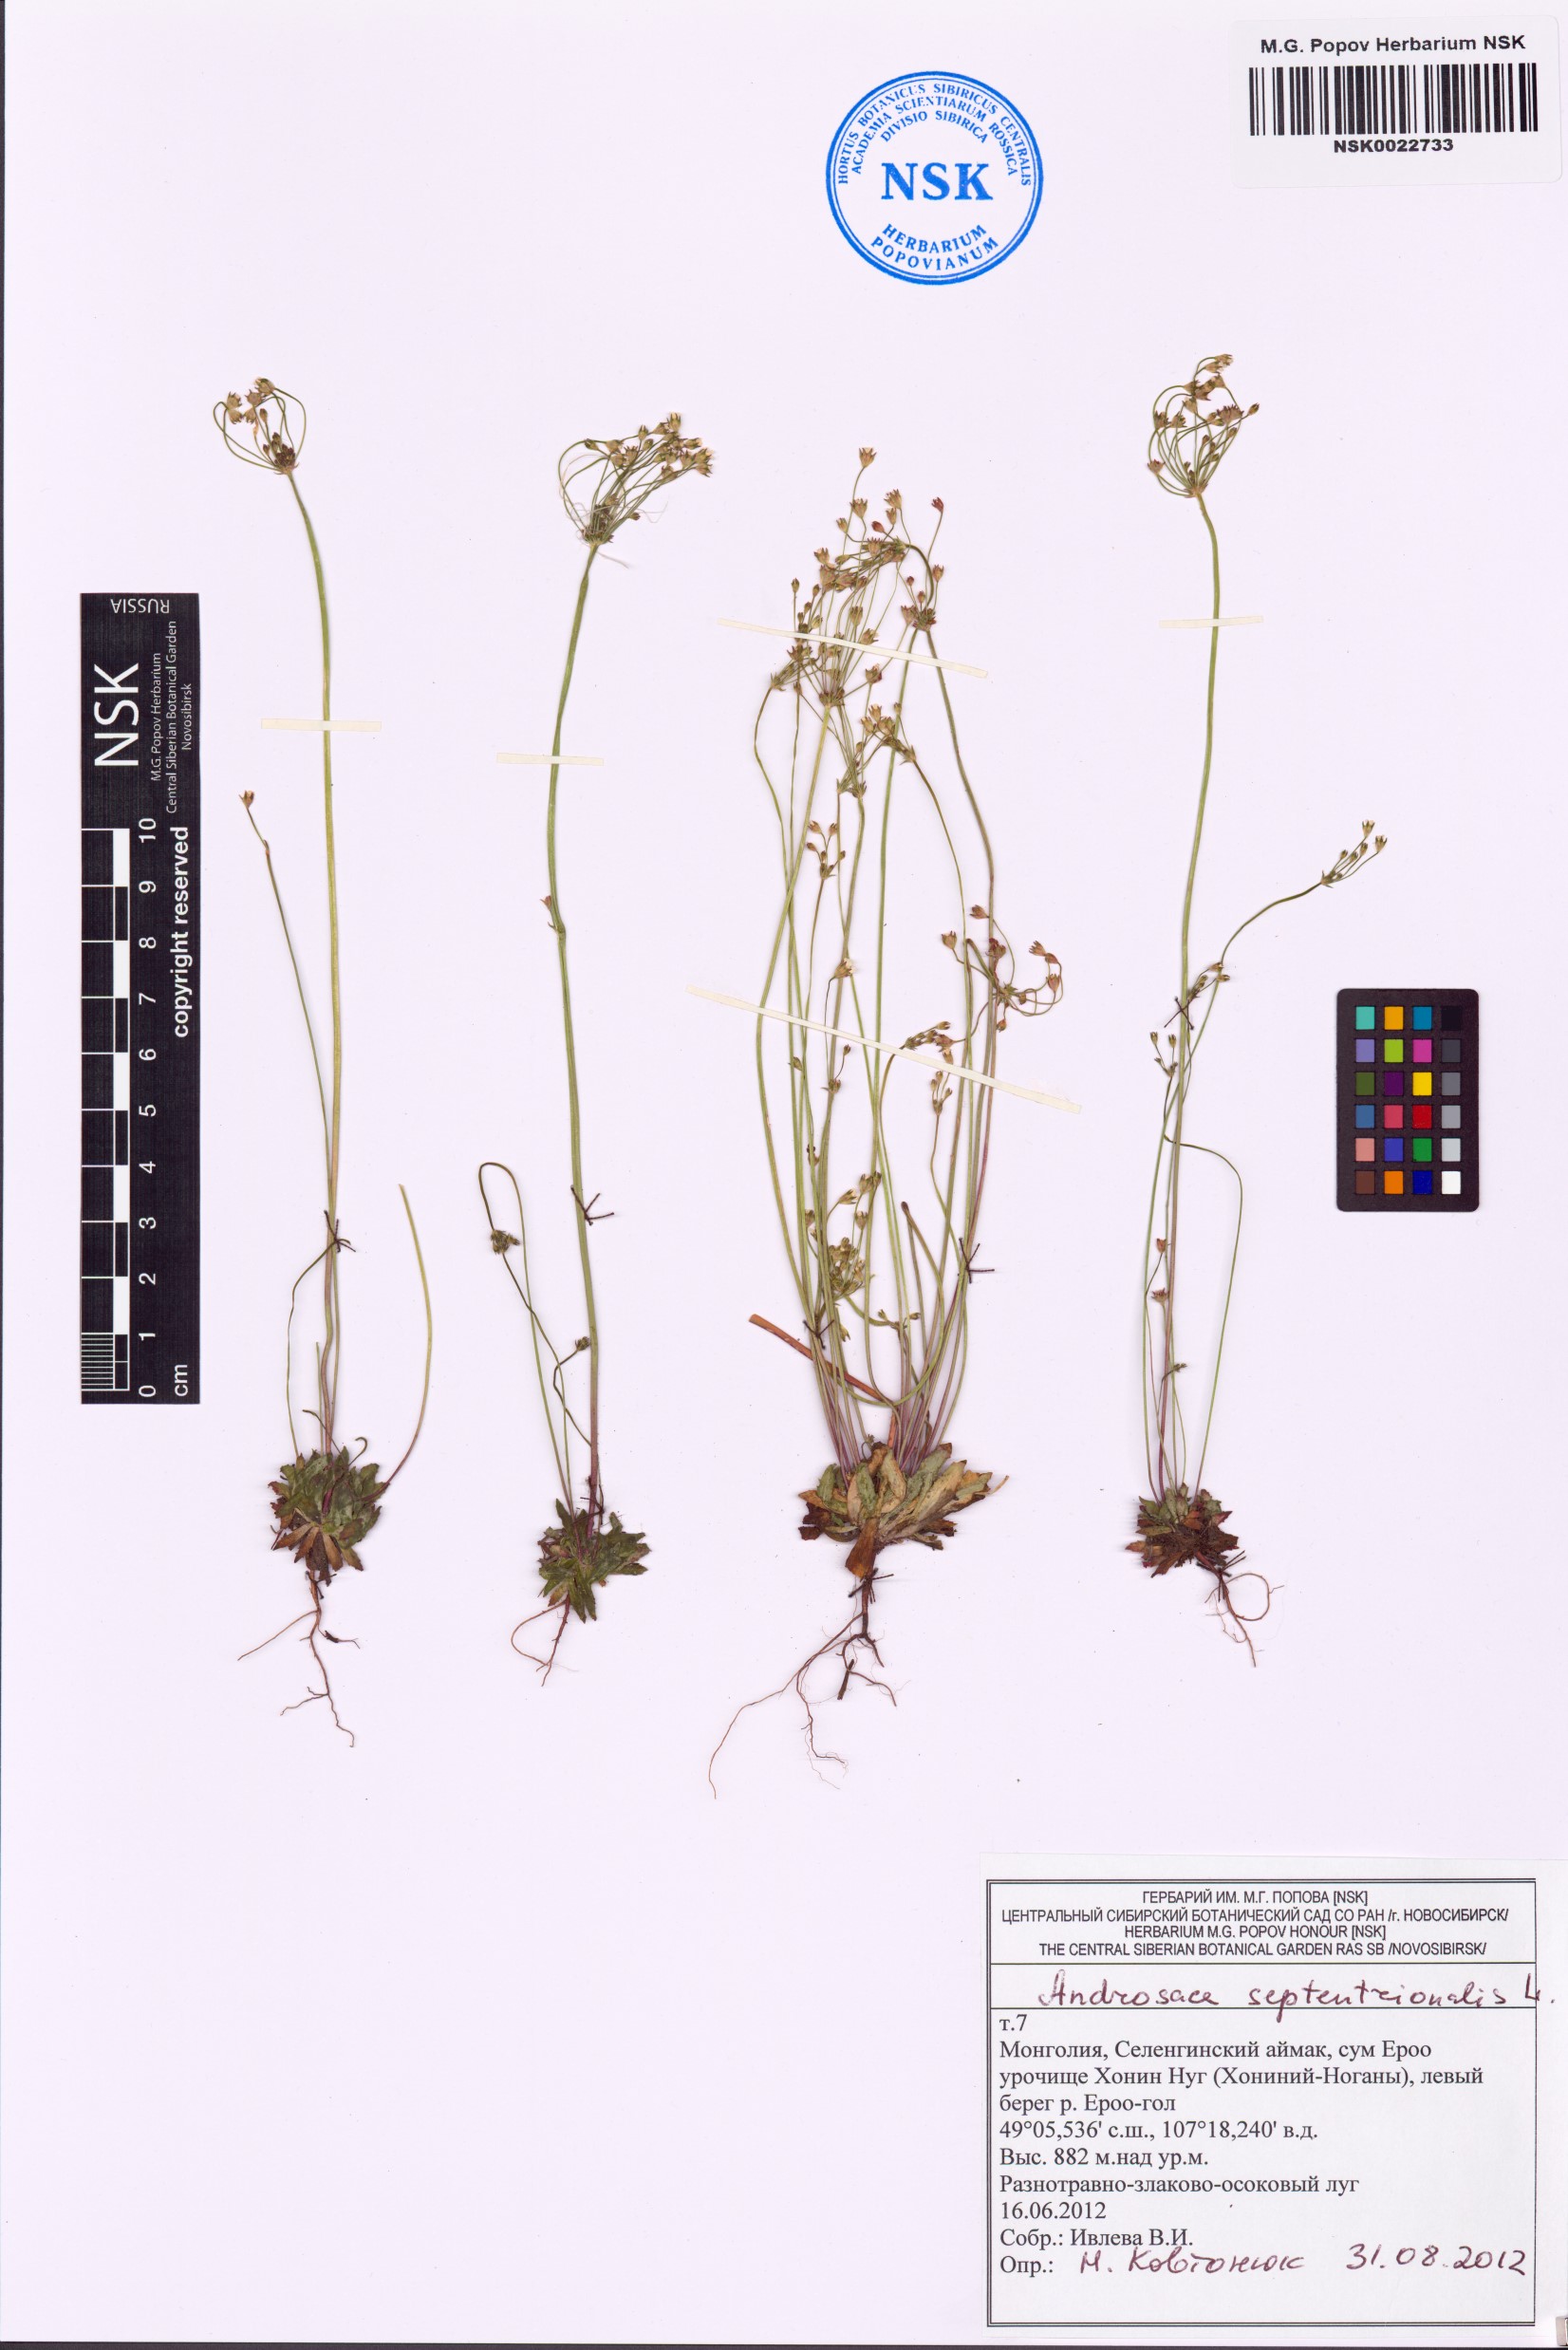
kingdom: Plantae
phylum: Tracheophyta
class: Magnoliopsida
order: Ericales
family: Primulaceae
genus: Androsace
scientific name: Androsace septentrionalis
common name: Hairy northern fairy-candelabra
